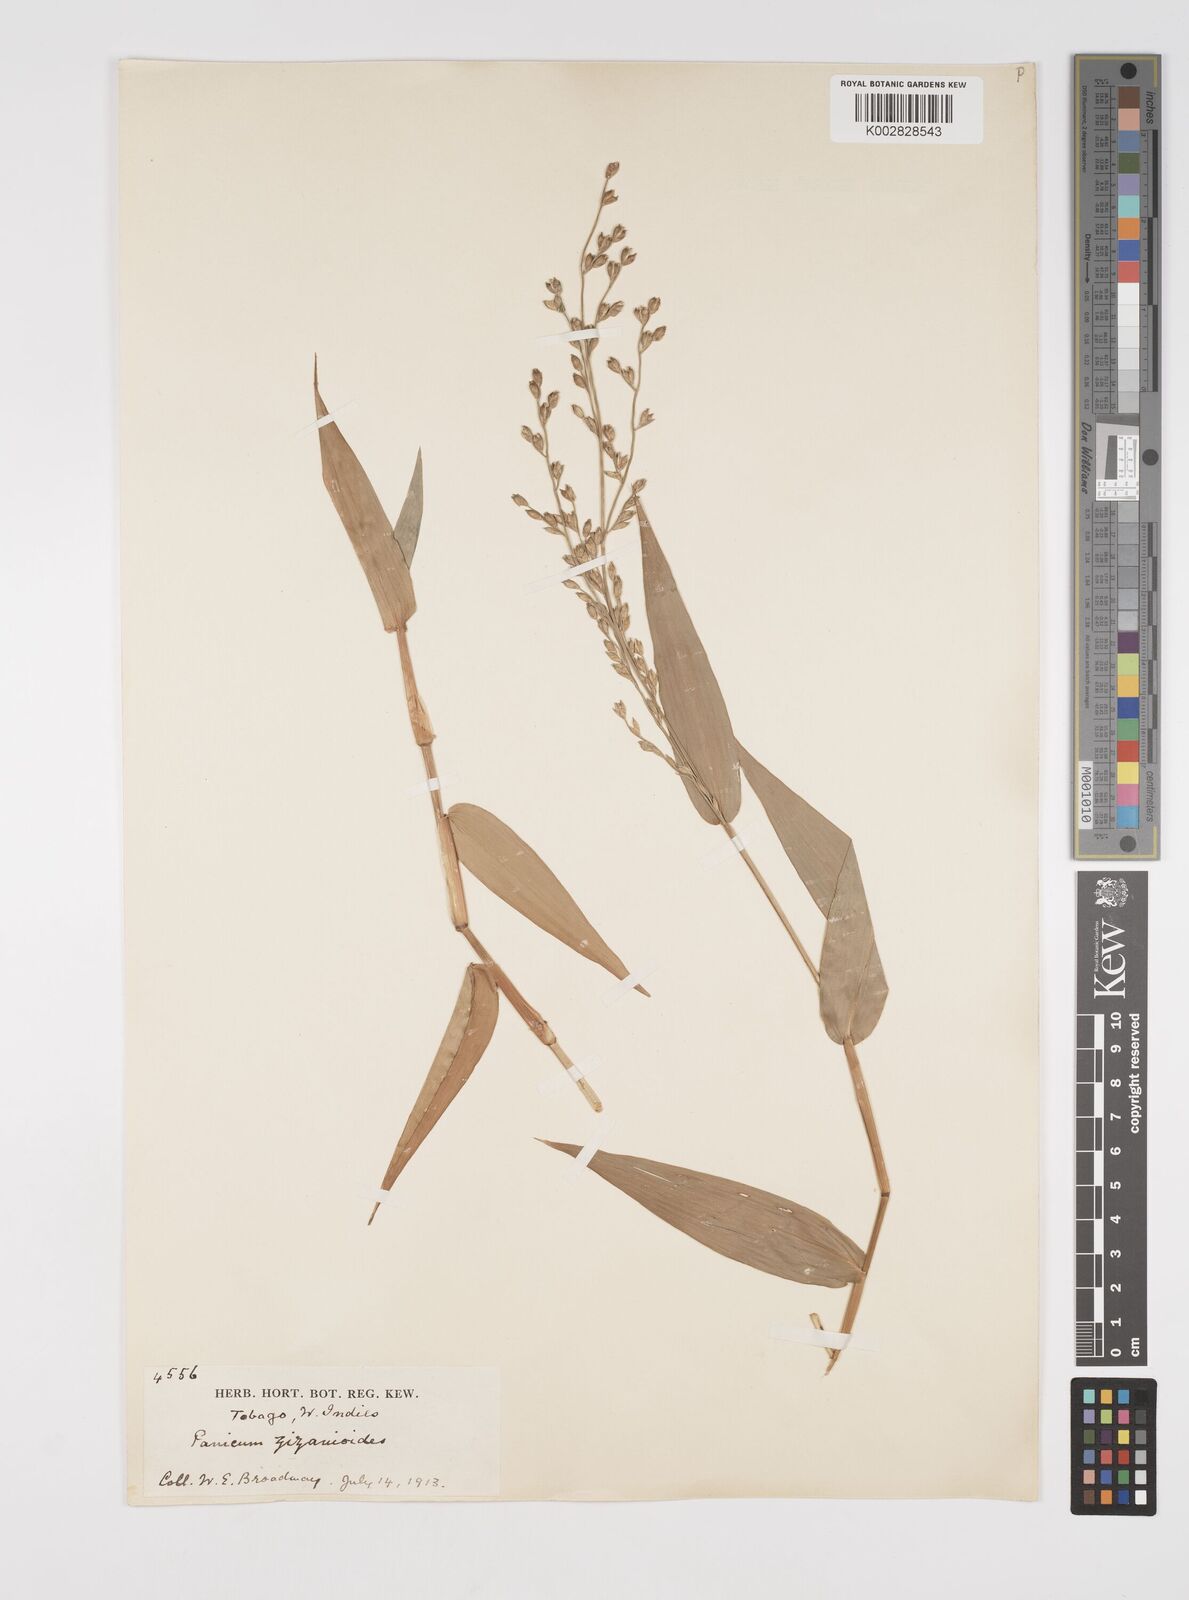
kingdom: Plantae
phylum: Tracheophyta
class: Liliopsida
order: Poales
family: Poaceae
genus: Acroceras
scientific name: Acroceras zizanioides
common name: Oat grass
